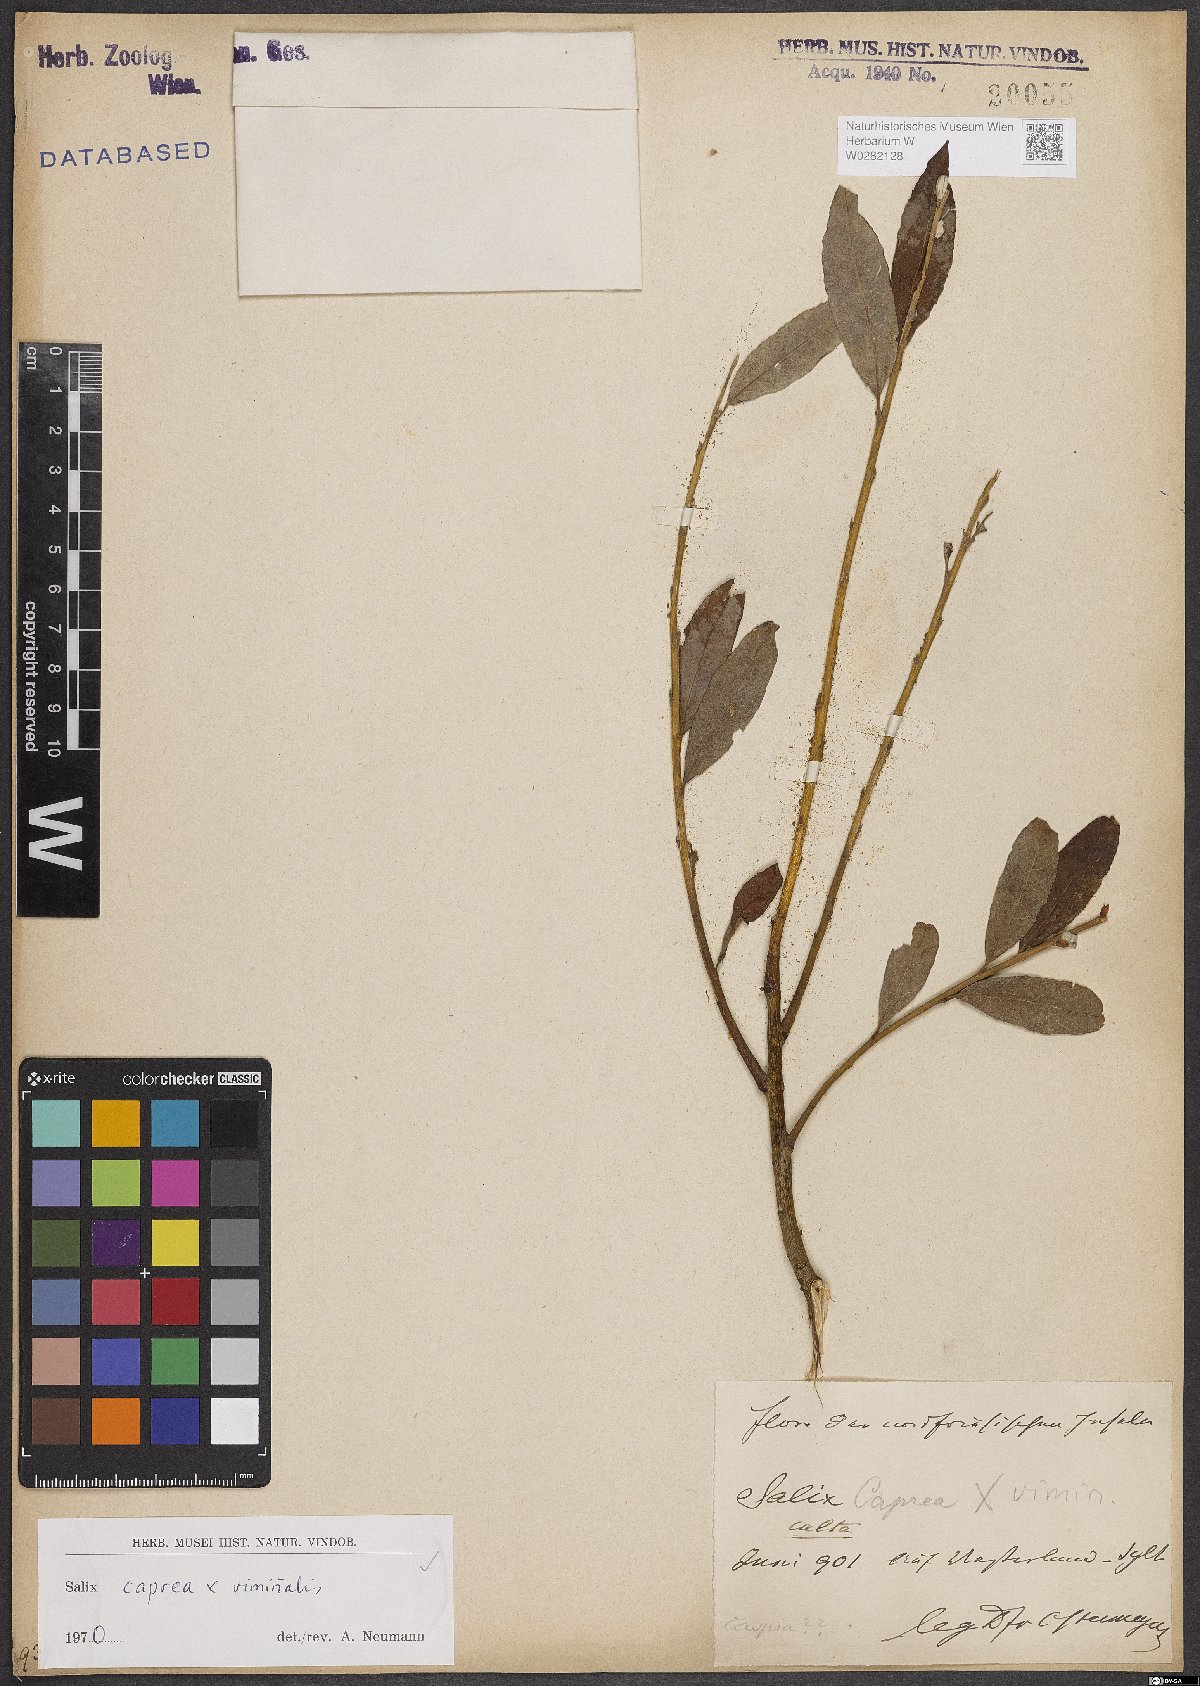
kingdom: Plantae
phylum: Tracheophyta
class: Magnoliopsida
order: Malpighiales
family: Salicaceae
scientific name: Salicaceae
